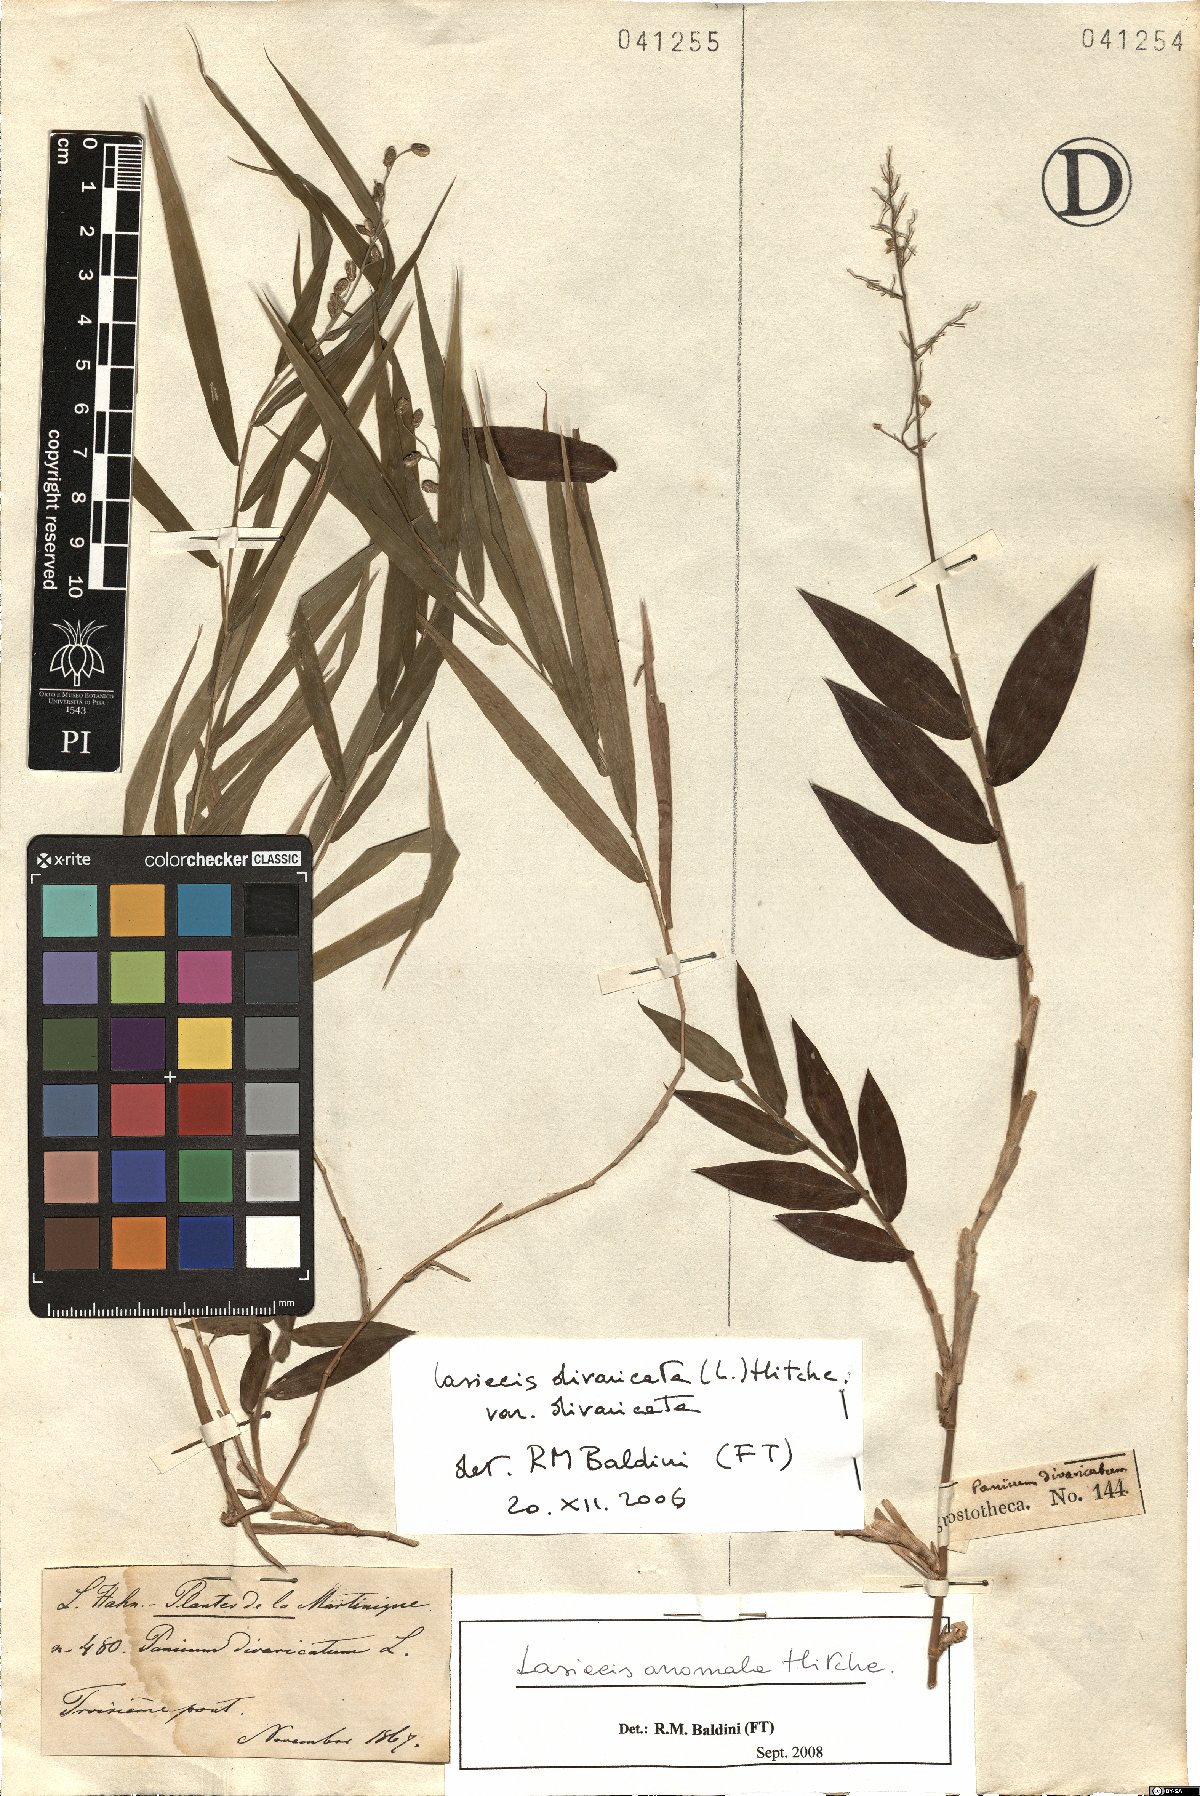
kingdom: Plantae
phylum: Tracheophyta
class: Liliopsida
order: Poales
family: Poaceae
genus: Lasiacis
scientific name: Lasiacis anomala
